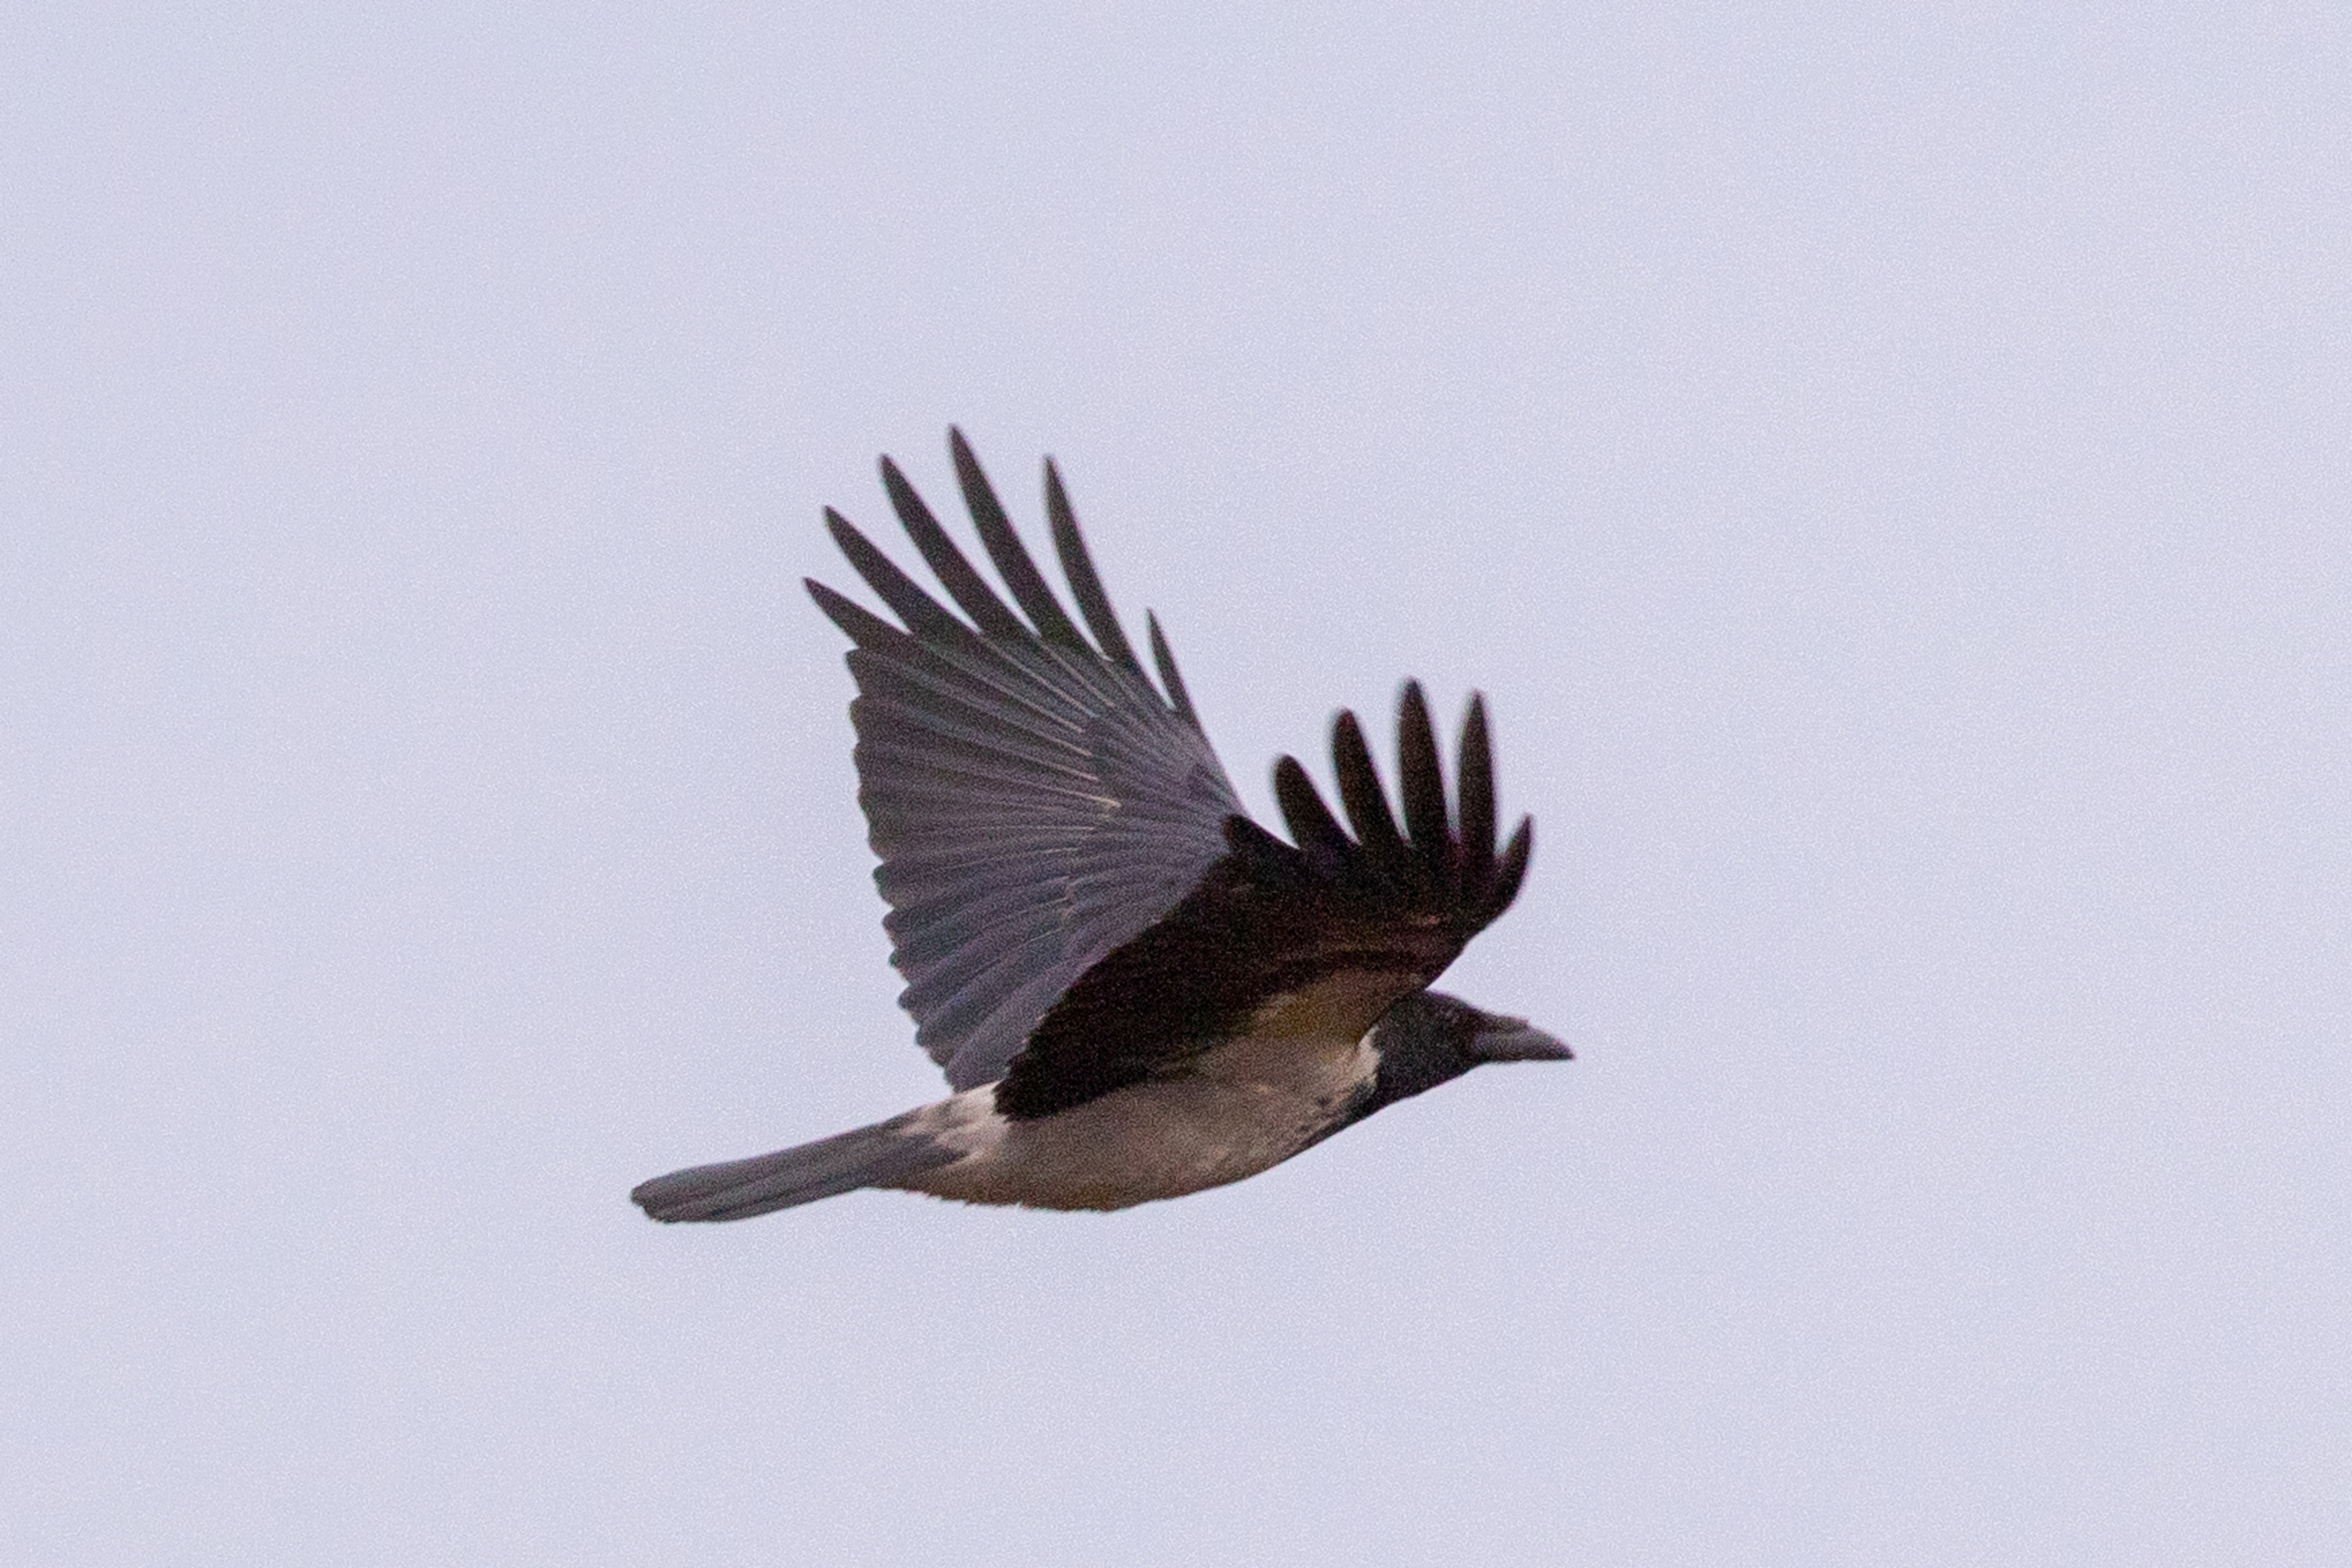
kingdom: Animalia
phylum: Chordata
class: Aves
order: Passeriformes
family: Corvidae
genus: Corvus
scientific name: Corvus cornix
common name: Gråkrage
